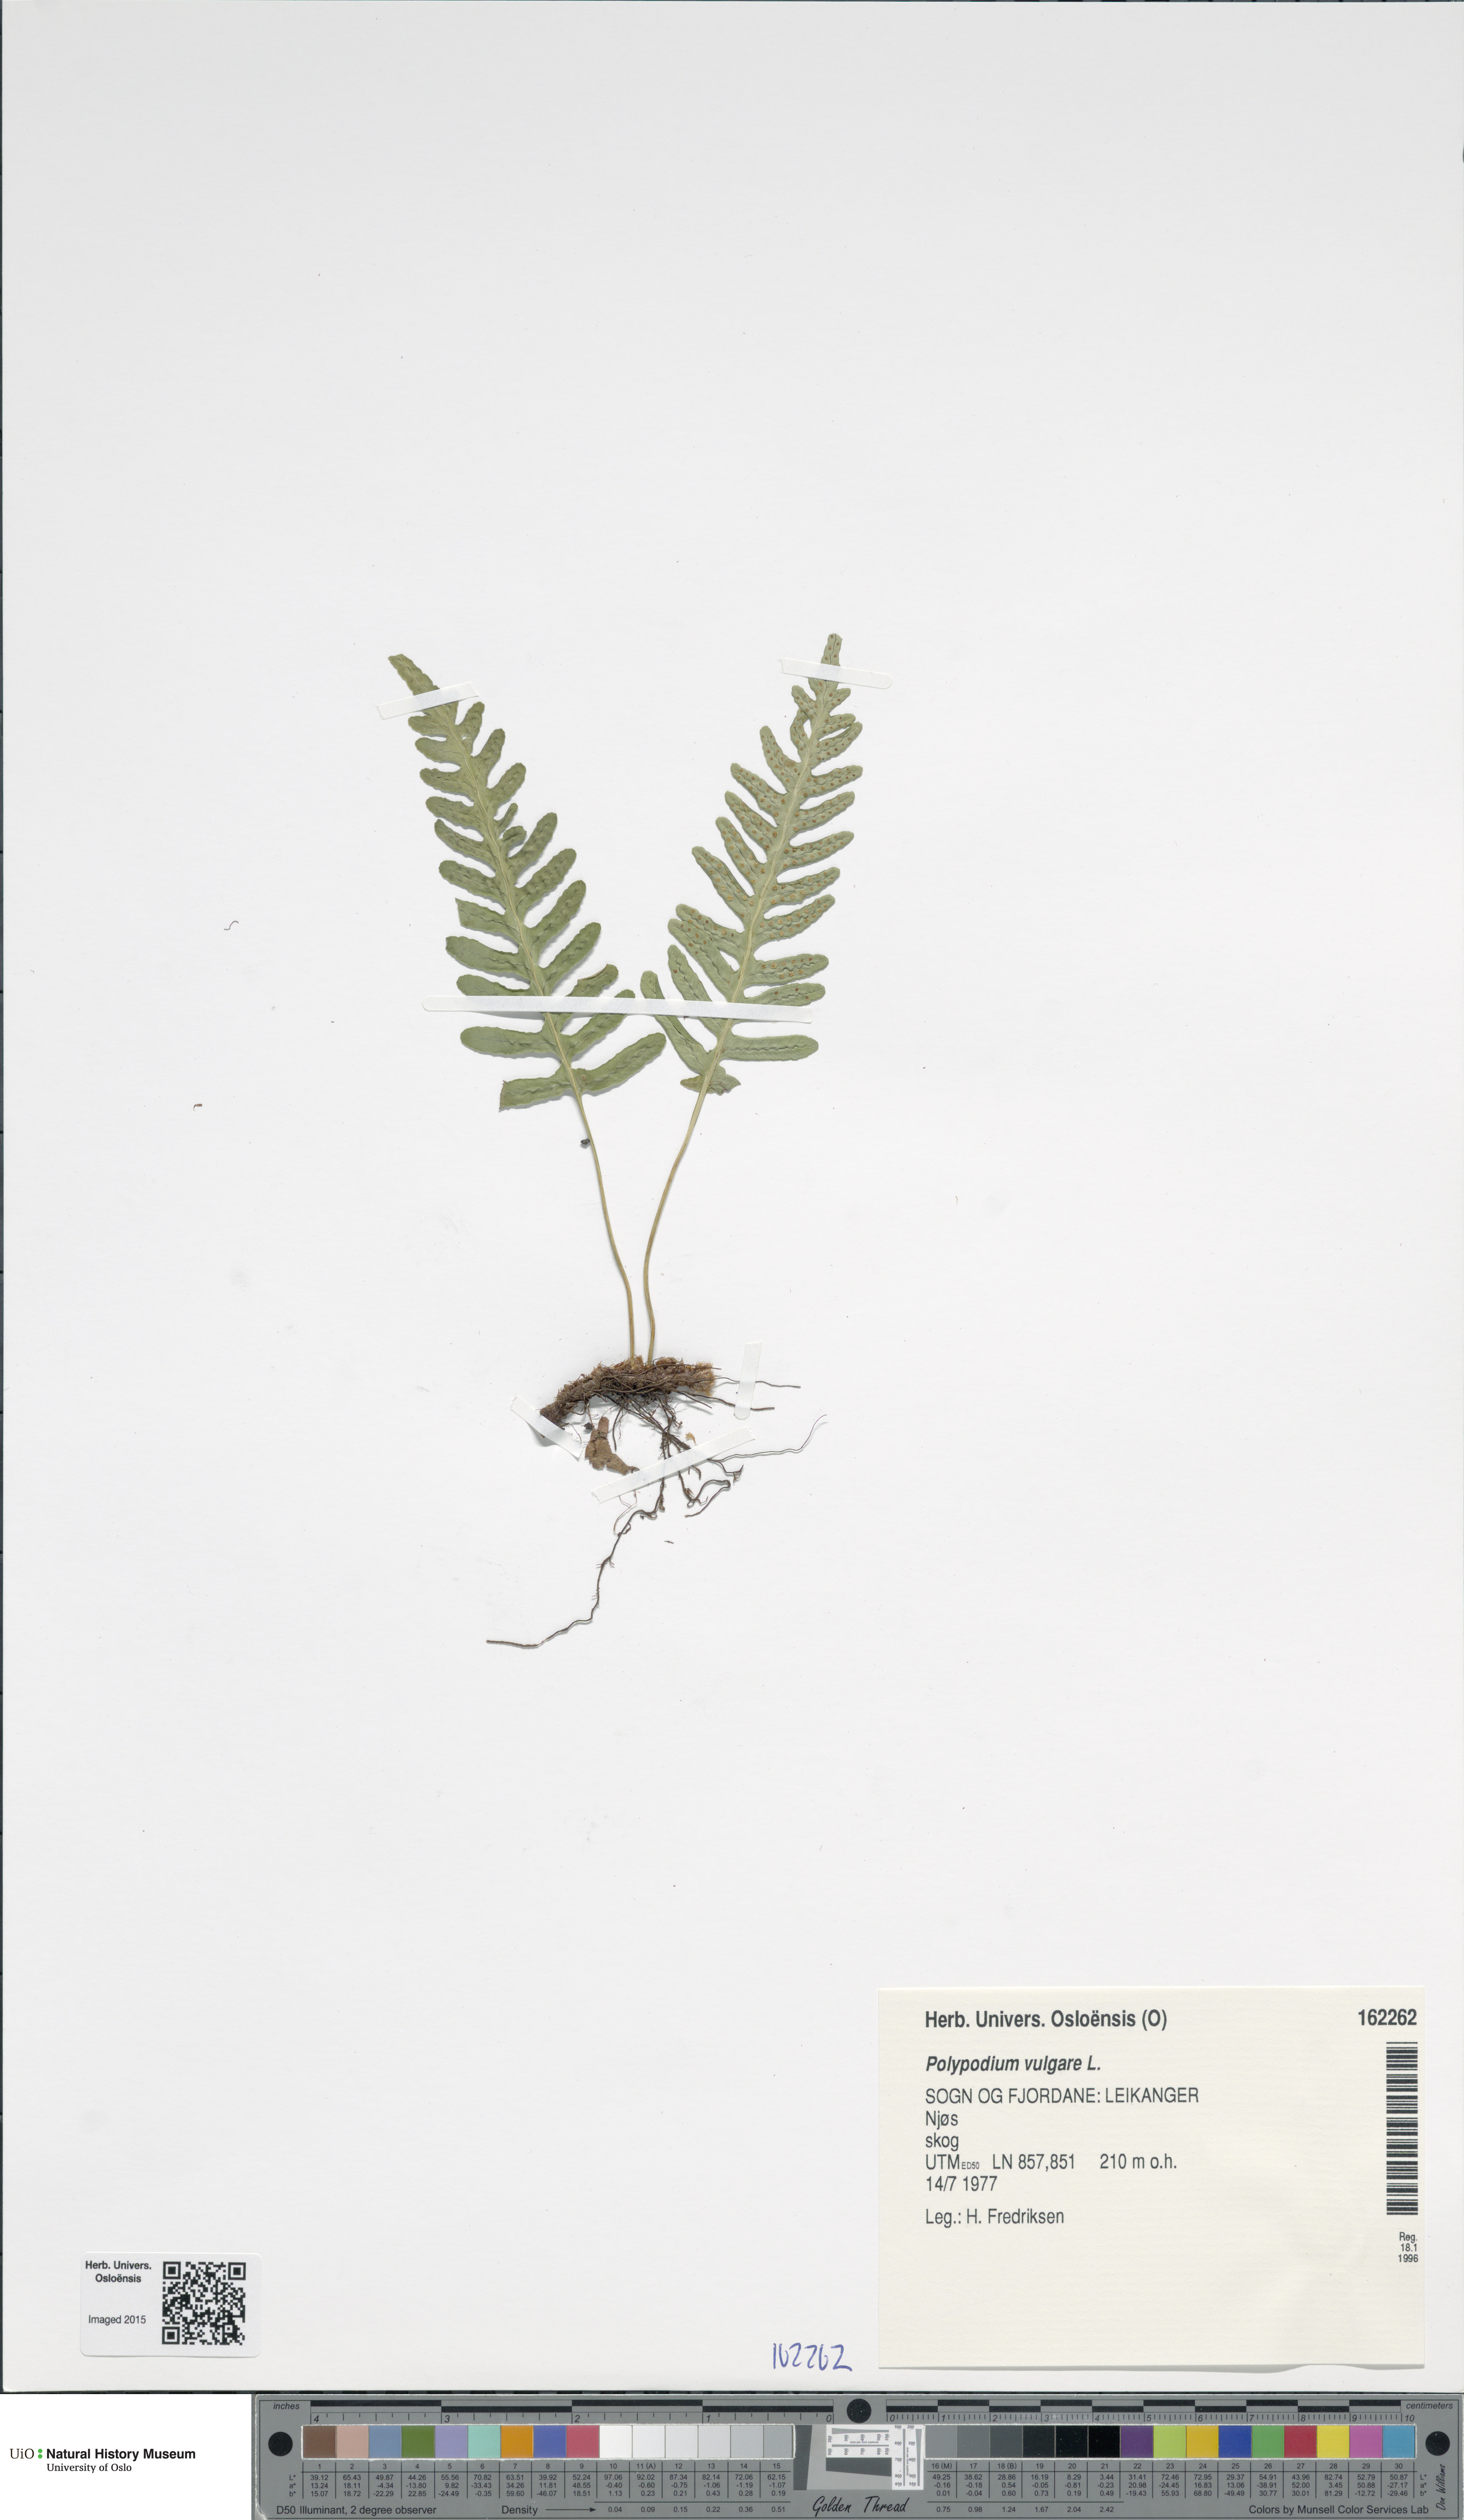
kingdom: Plantae
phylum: Tracheophyta
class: Polypodiopsida
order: Polypodiales
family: Polypodiaceae
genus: Polypodium
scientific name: Polypodium vulgare
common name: Common polypody
